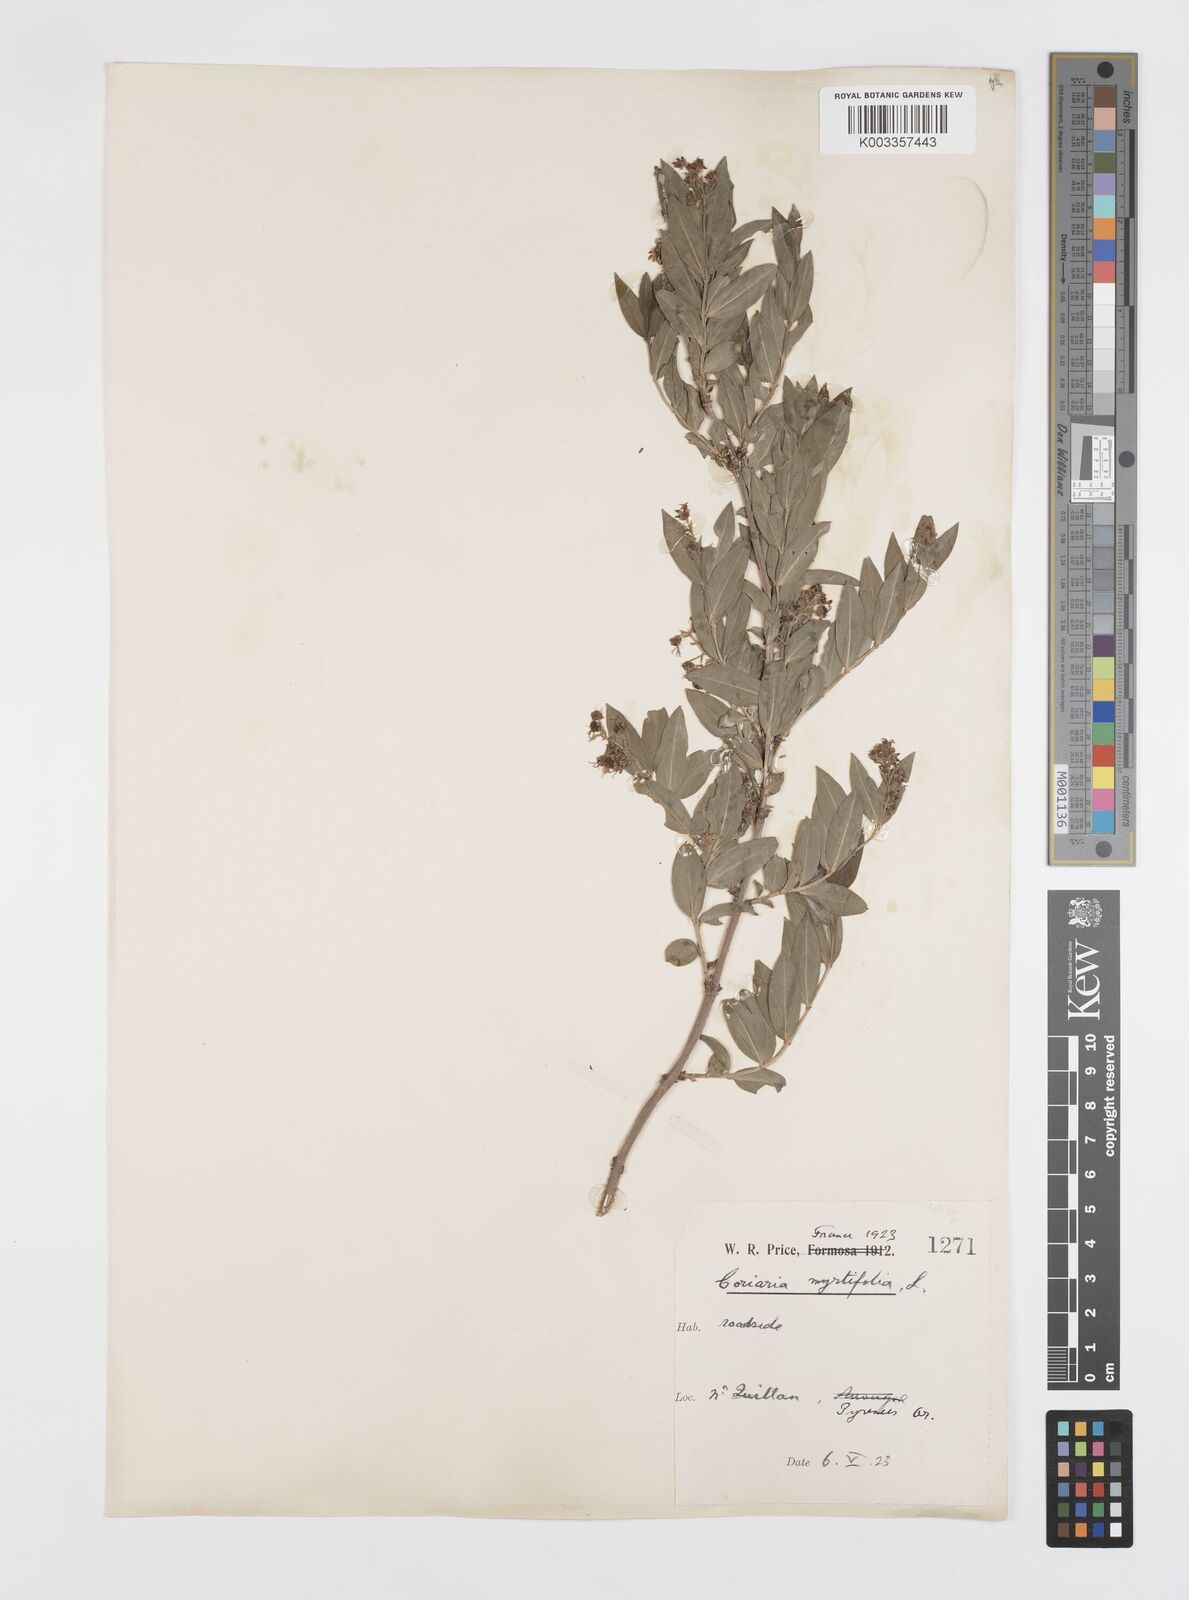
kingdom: Plantae
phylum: Tracheophyta
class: Magnoliopsida
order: Cucurbitales
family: Coriariaceae
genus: Coriaria
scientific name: Coriaria myrtifolia
